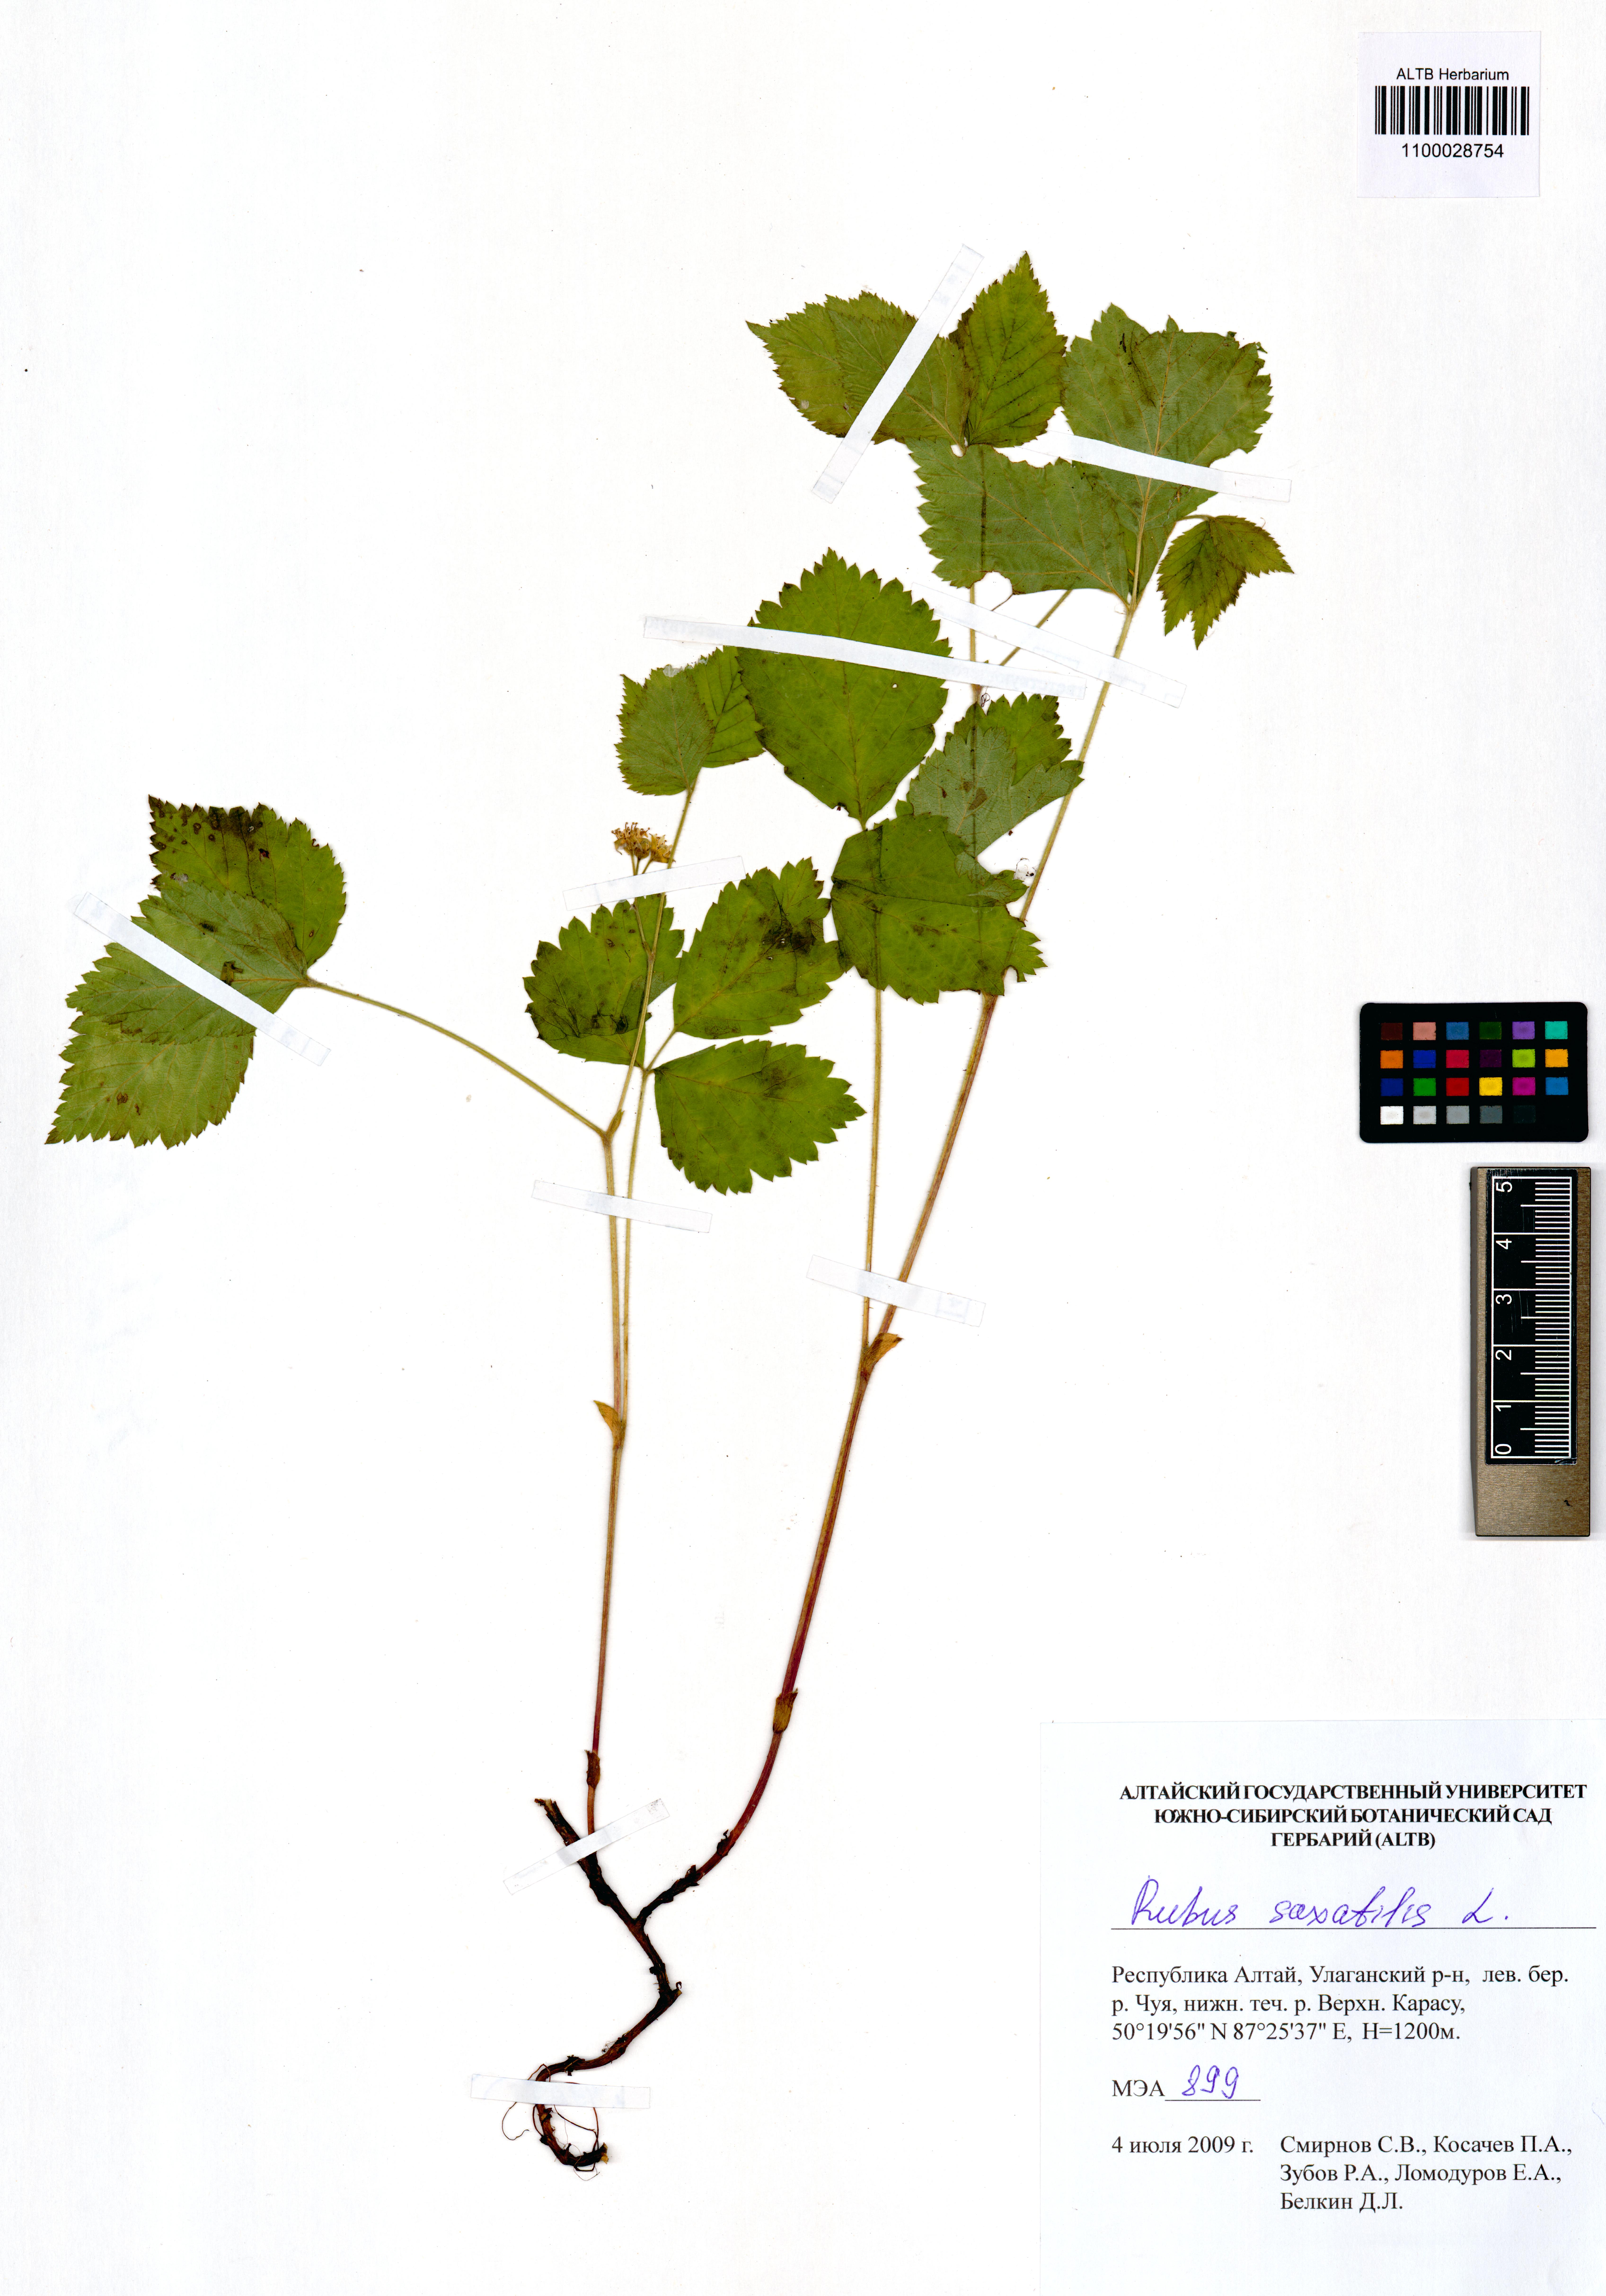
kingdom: Plantae
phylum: Tracheophyta
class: Magnoliopsida
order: Rosales
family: Rosaceae
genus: Rubus
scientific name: Rubus saxatilis
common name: Stone bramble
